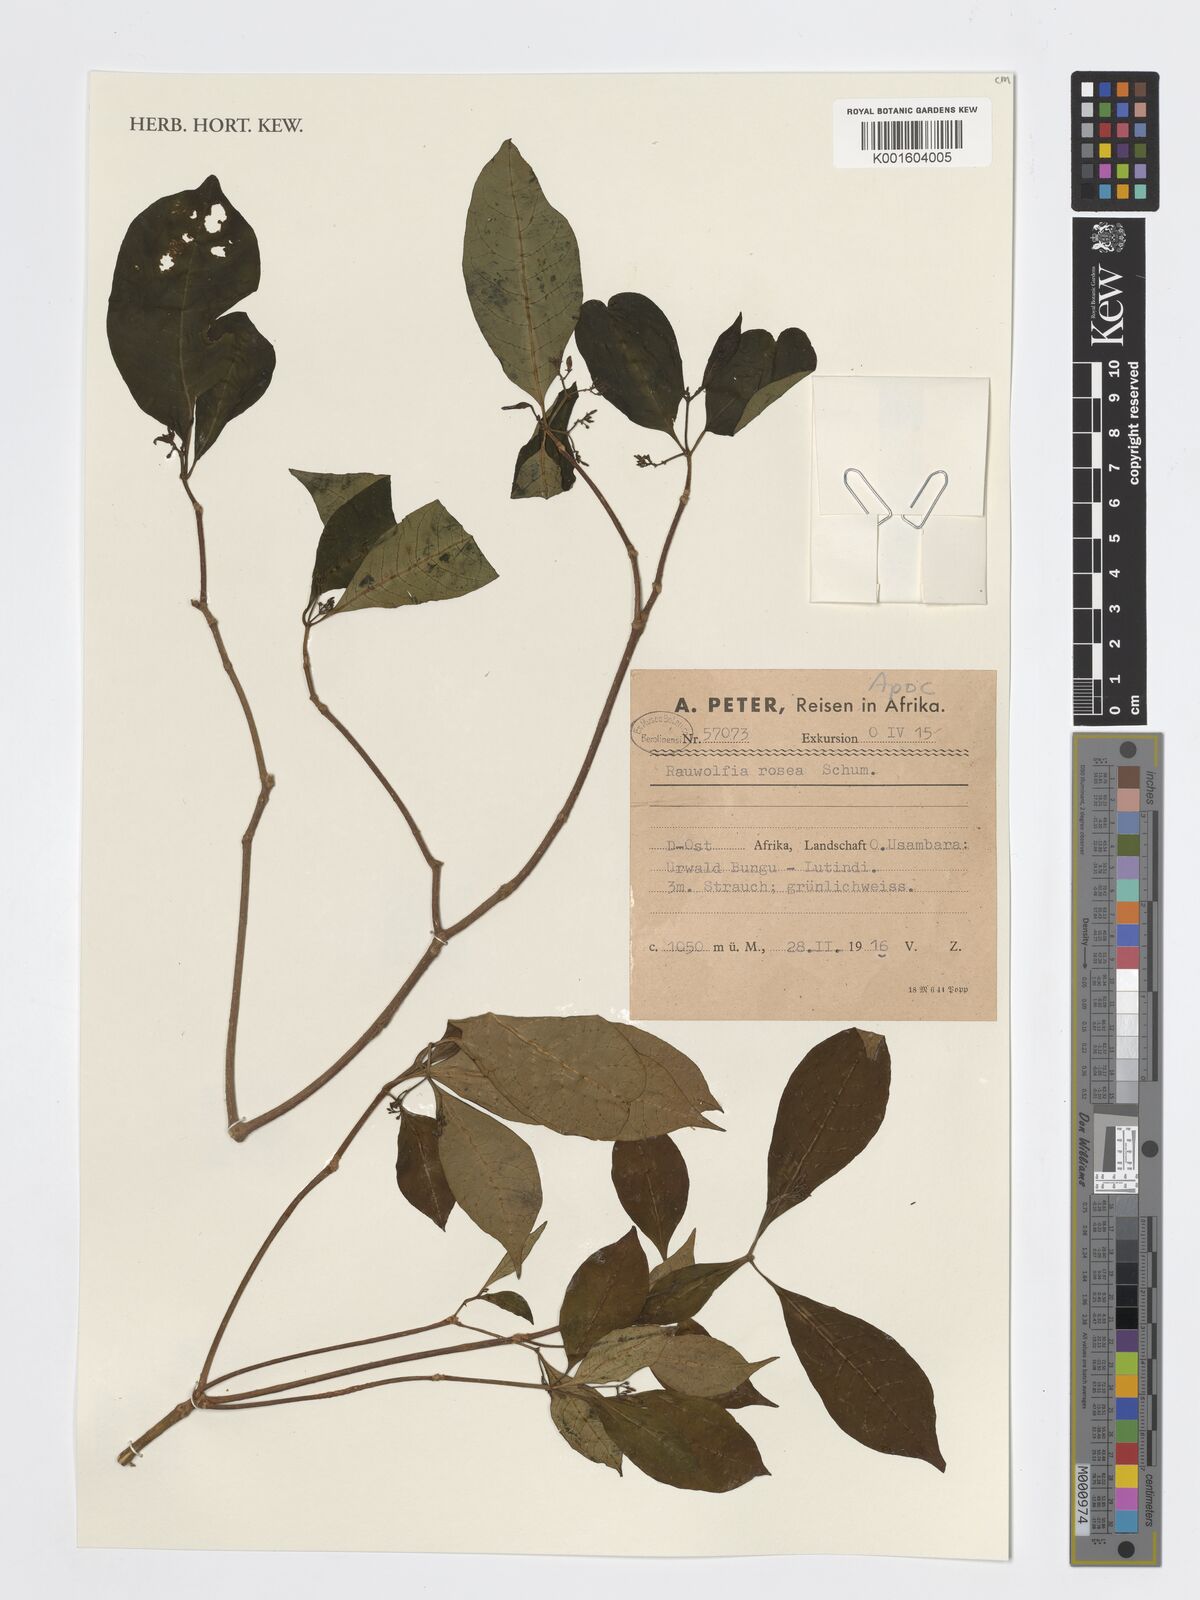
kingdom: Plantae
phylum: Tracheophyta
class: Magnoliopsida
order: Gentianales
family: Apocynaceae
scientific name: Apocynaceae
